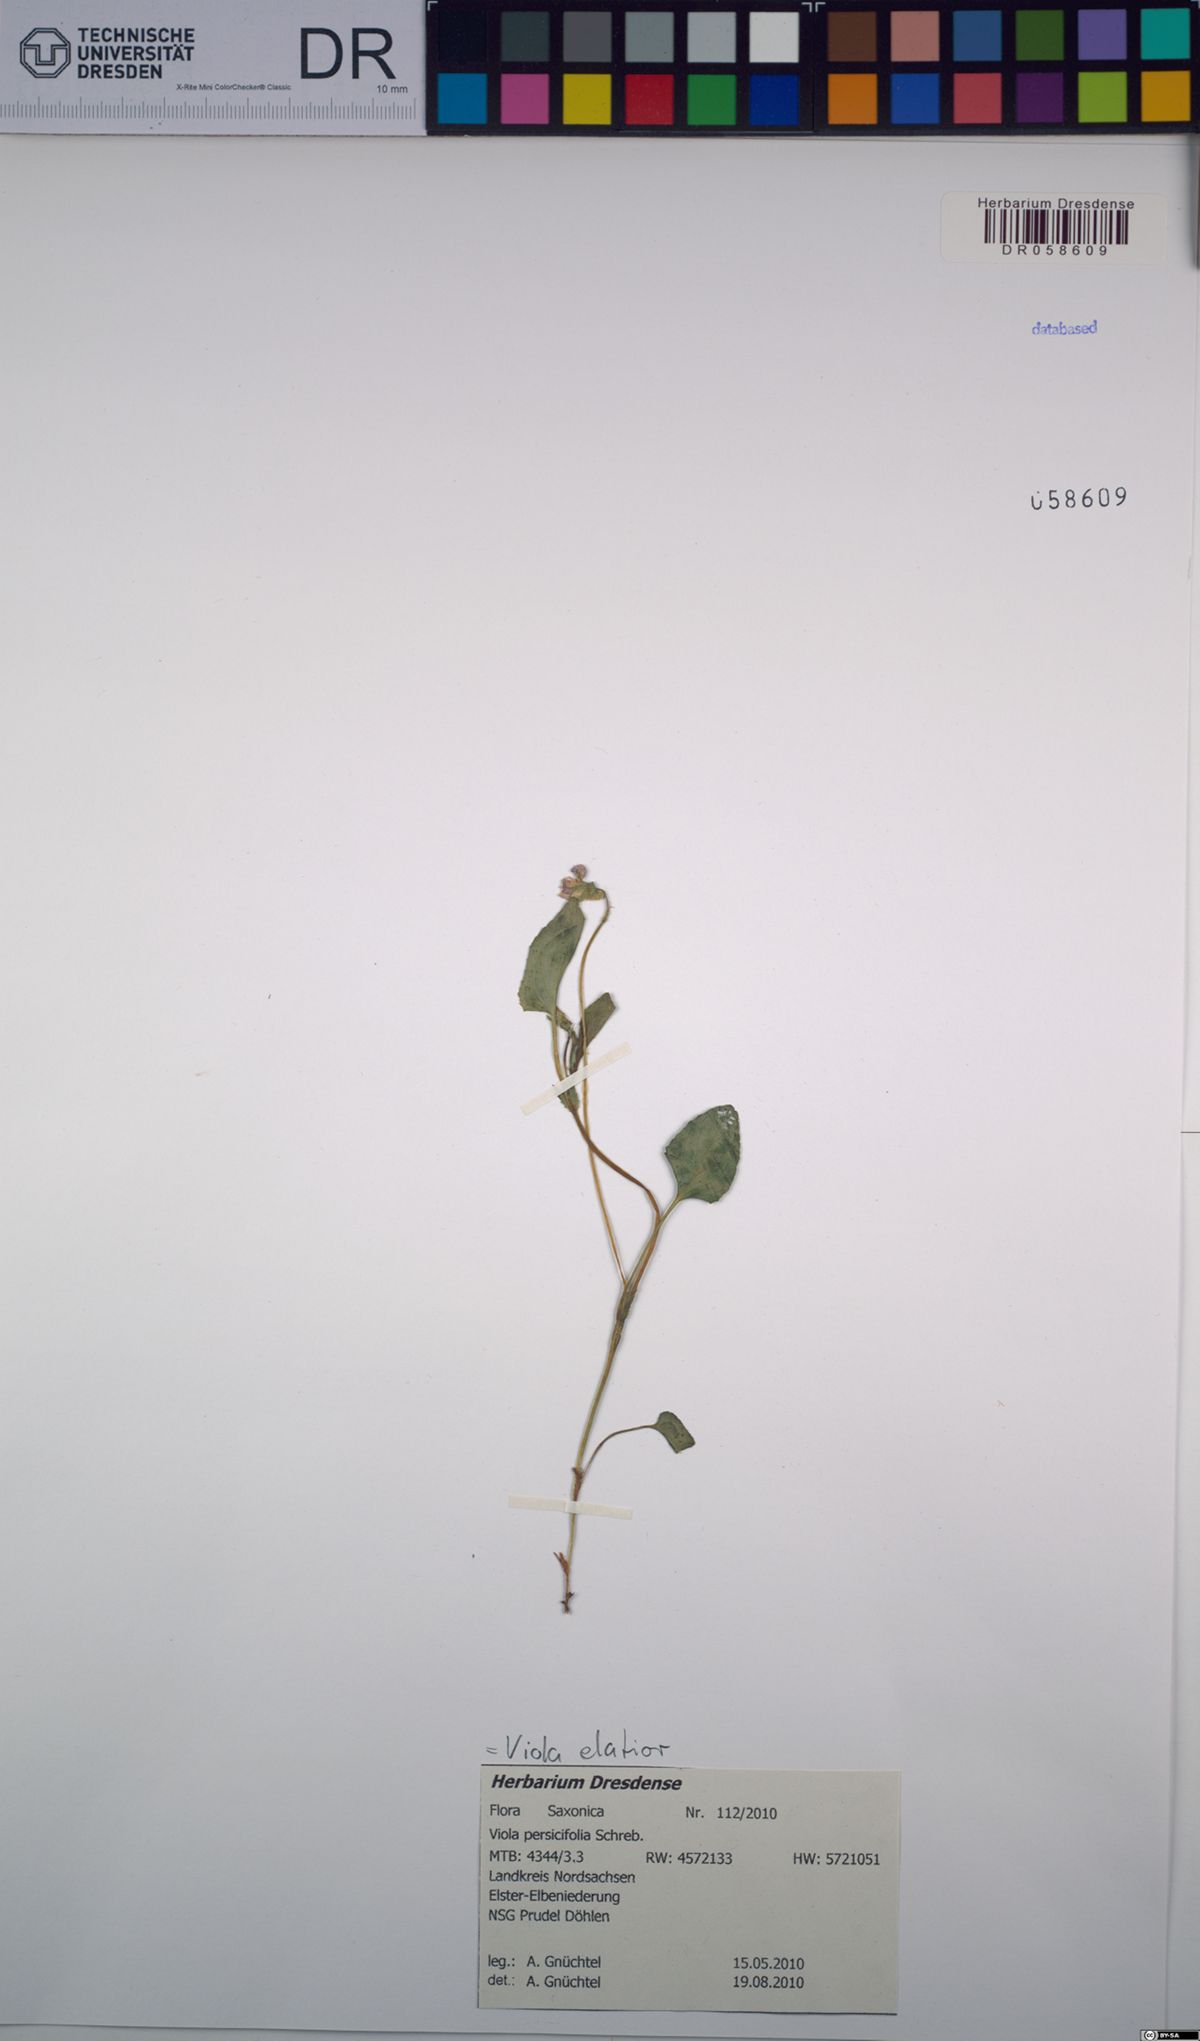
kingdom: Plantae
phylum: Tracheophyta
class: Magnoliopsida
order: Malpighiales
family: Violaceae
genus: Viola
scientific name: Viola elatior
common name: Tall violet
